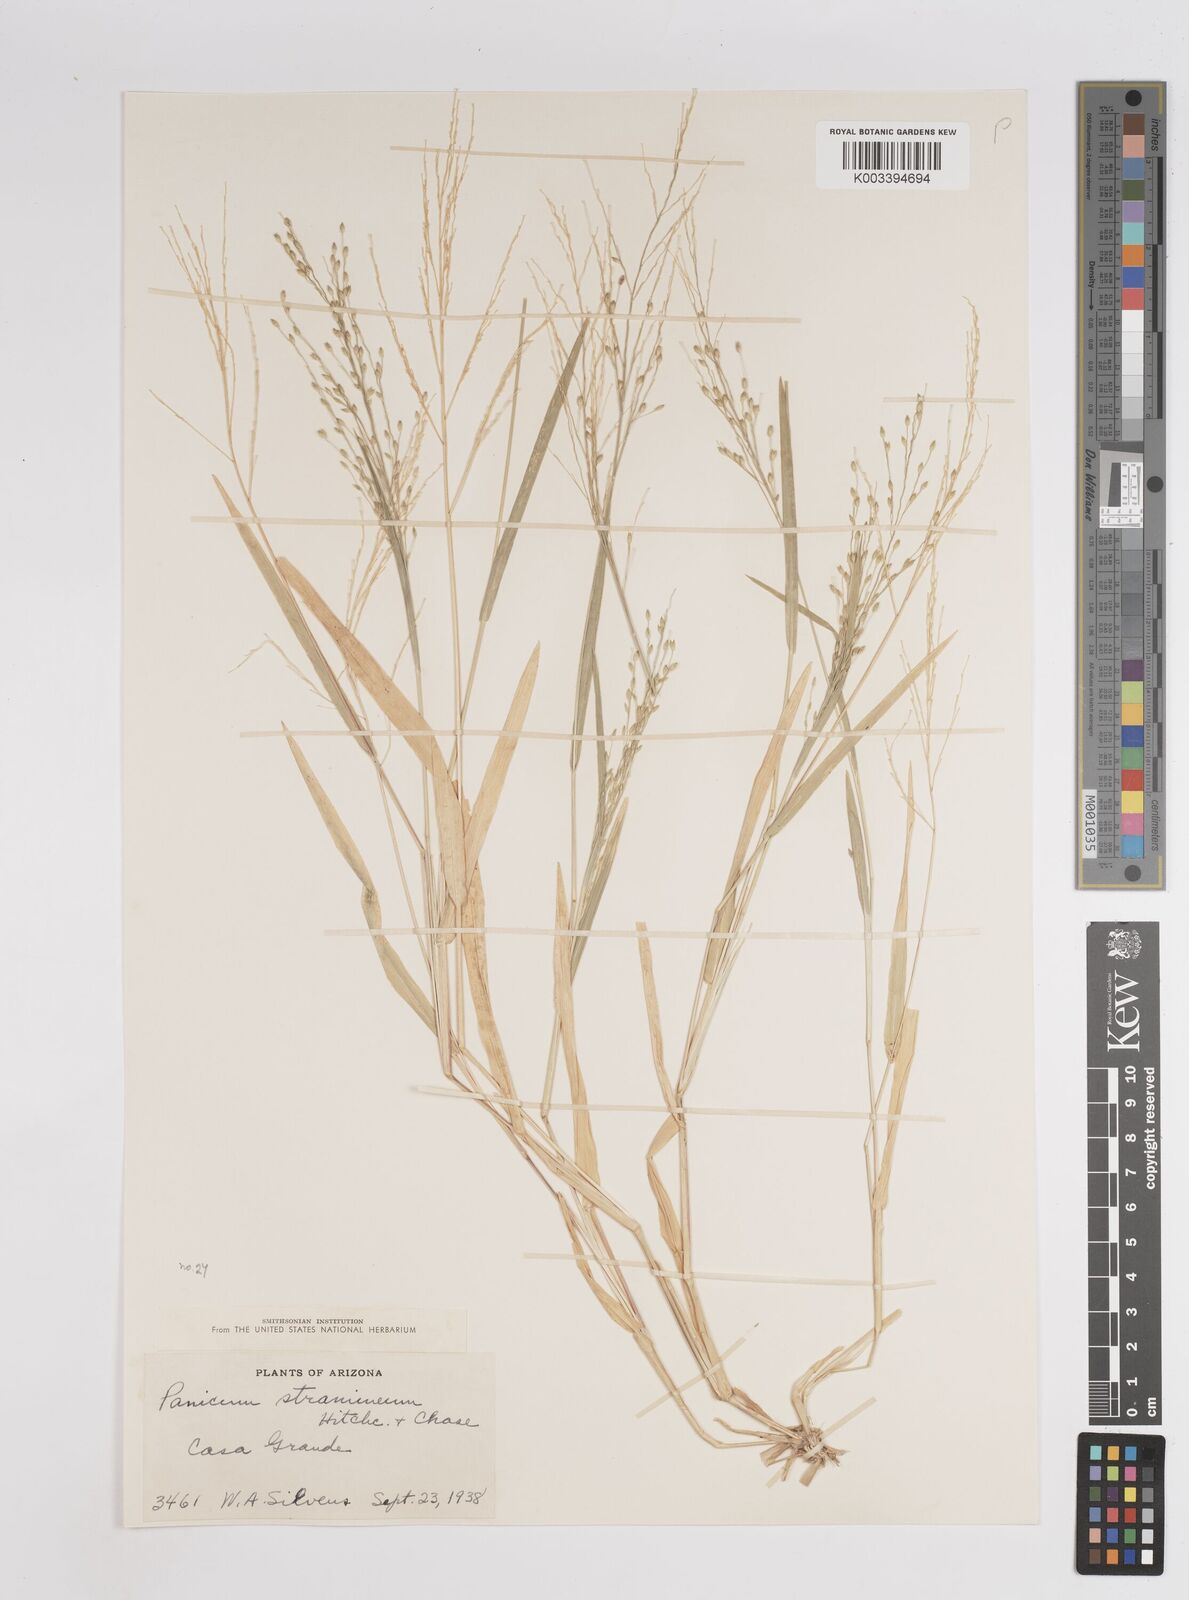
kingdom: Plantae
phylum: Tracheophyta
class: Liliopsida
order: Poales
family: Poaceae
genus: Panicum
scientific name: Panicum stramineum
